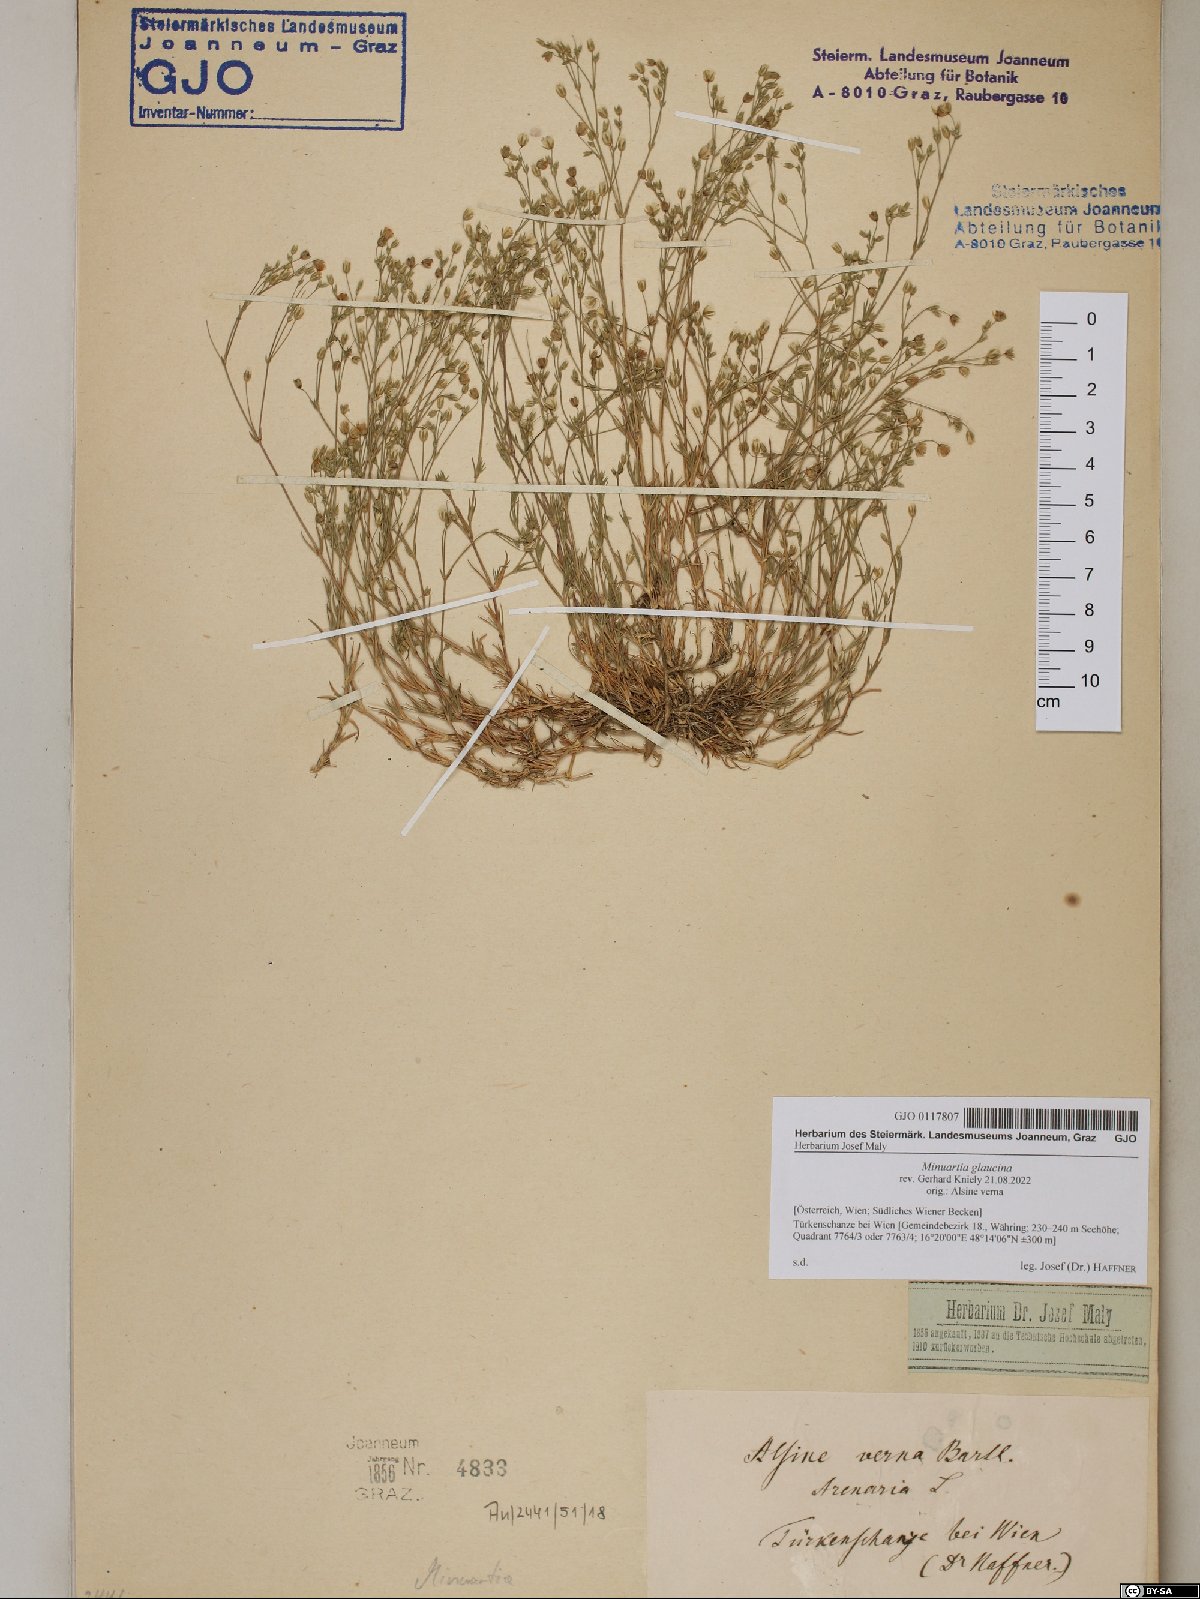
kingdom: Plantae
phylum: Tracheophyta
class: Magnoliopsida
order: Caryophyllales
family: Caryophyllaceae
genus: Sabulina
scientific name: Sabulina glaucina
